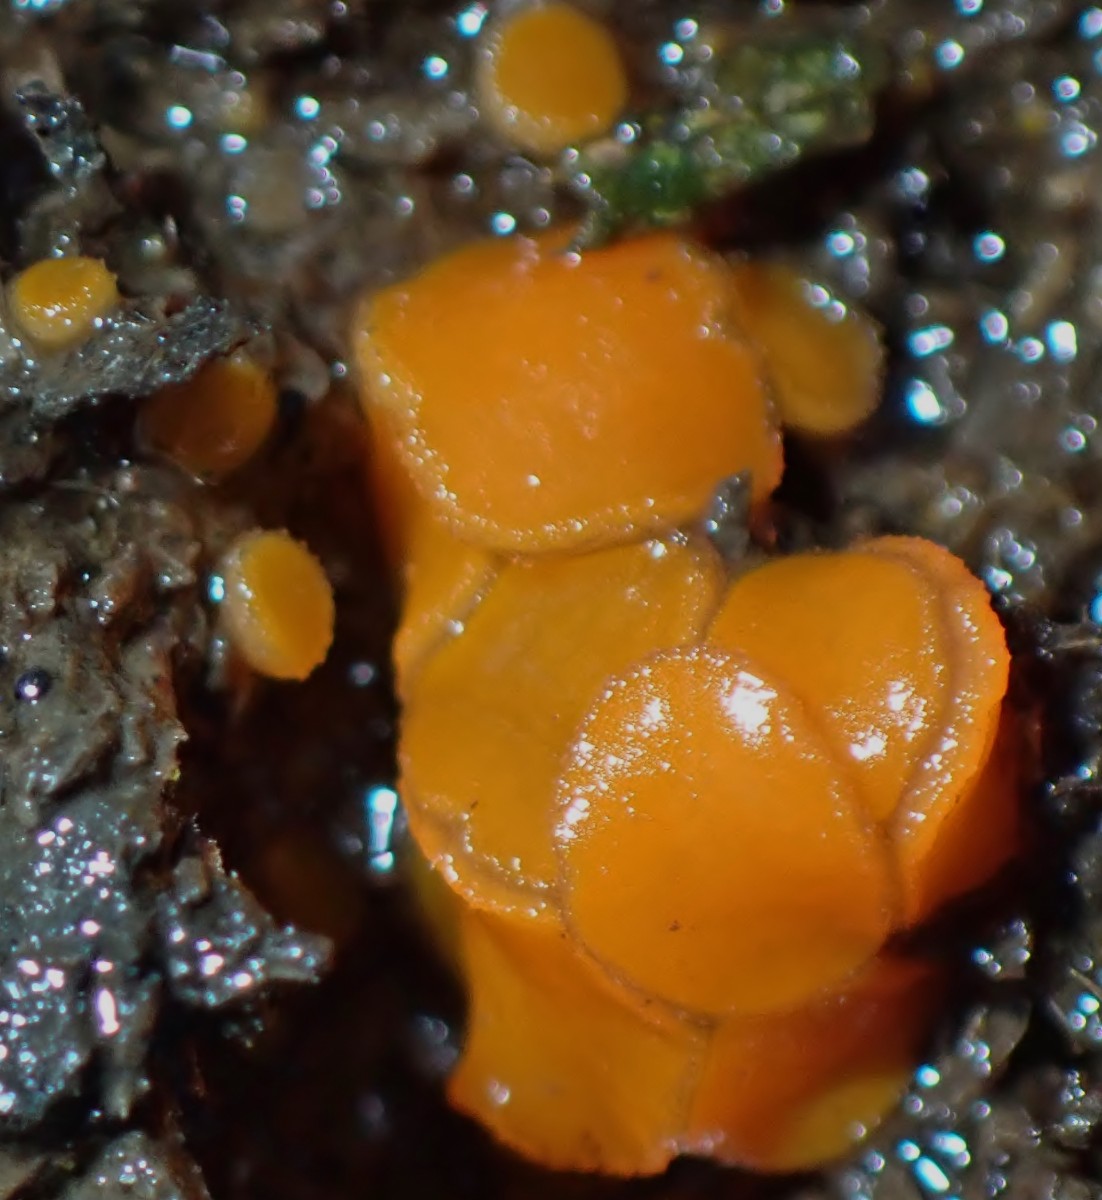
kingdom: Fungi
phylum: Ascomycota
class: Pezizomycetes
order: Pezizales
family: Pyronemataceae
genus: Cheilymenia
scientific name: Cheilymenia granulata
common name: møgbæger
